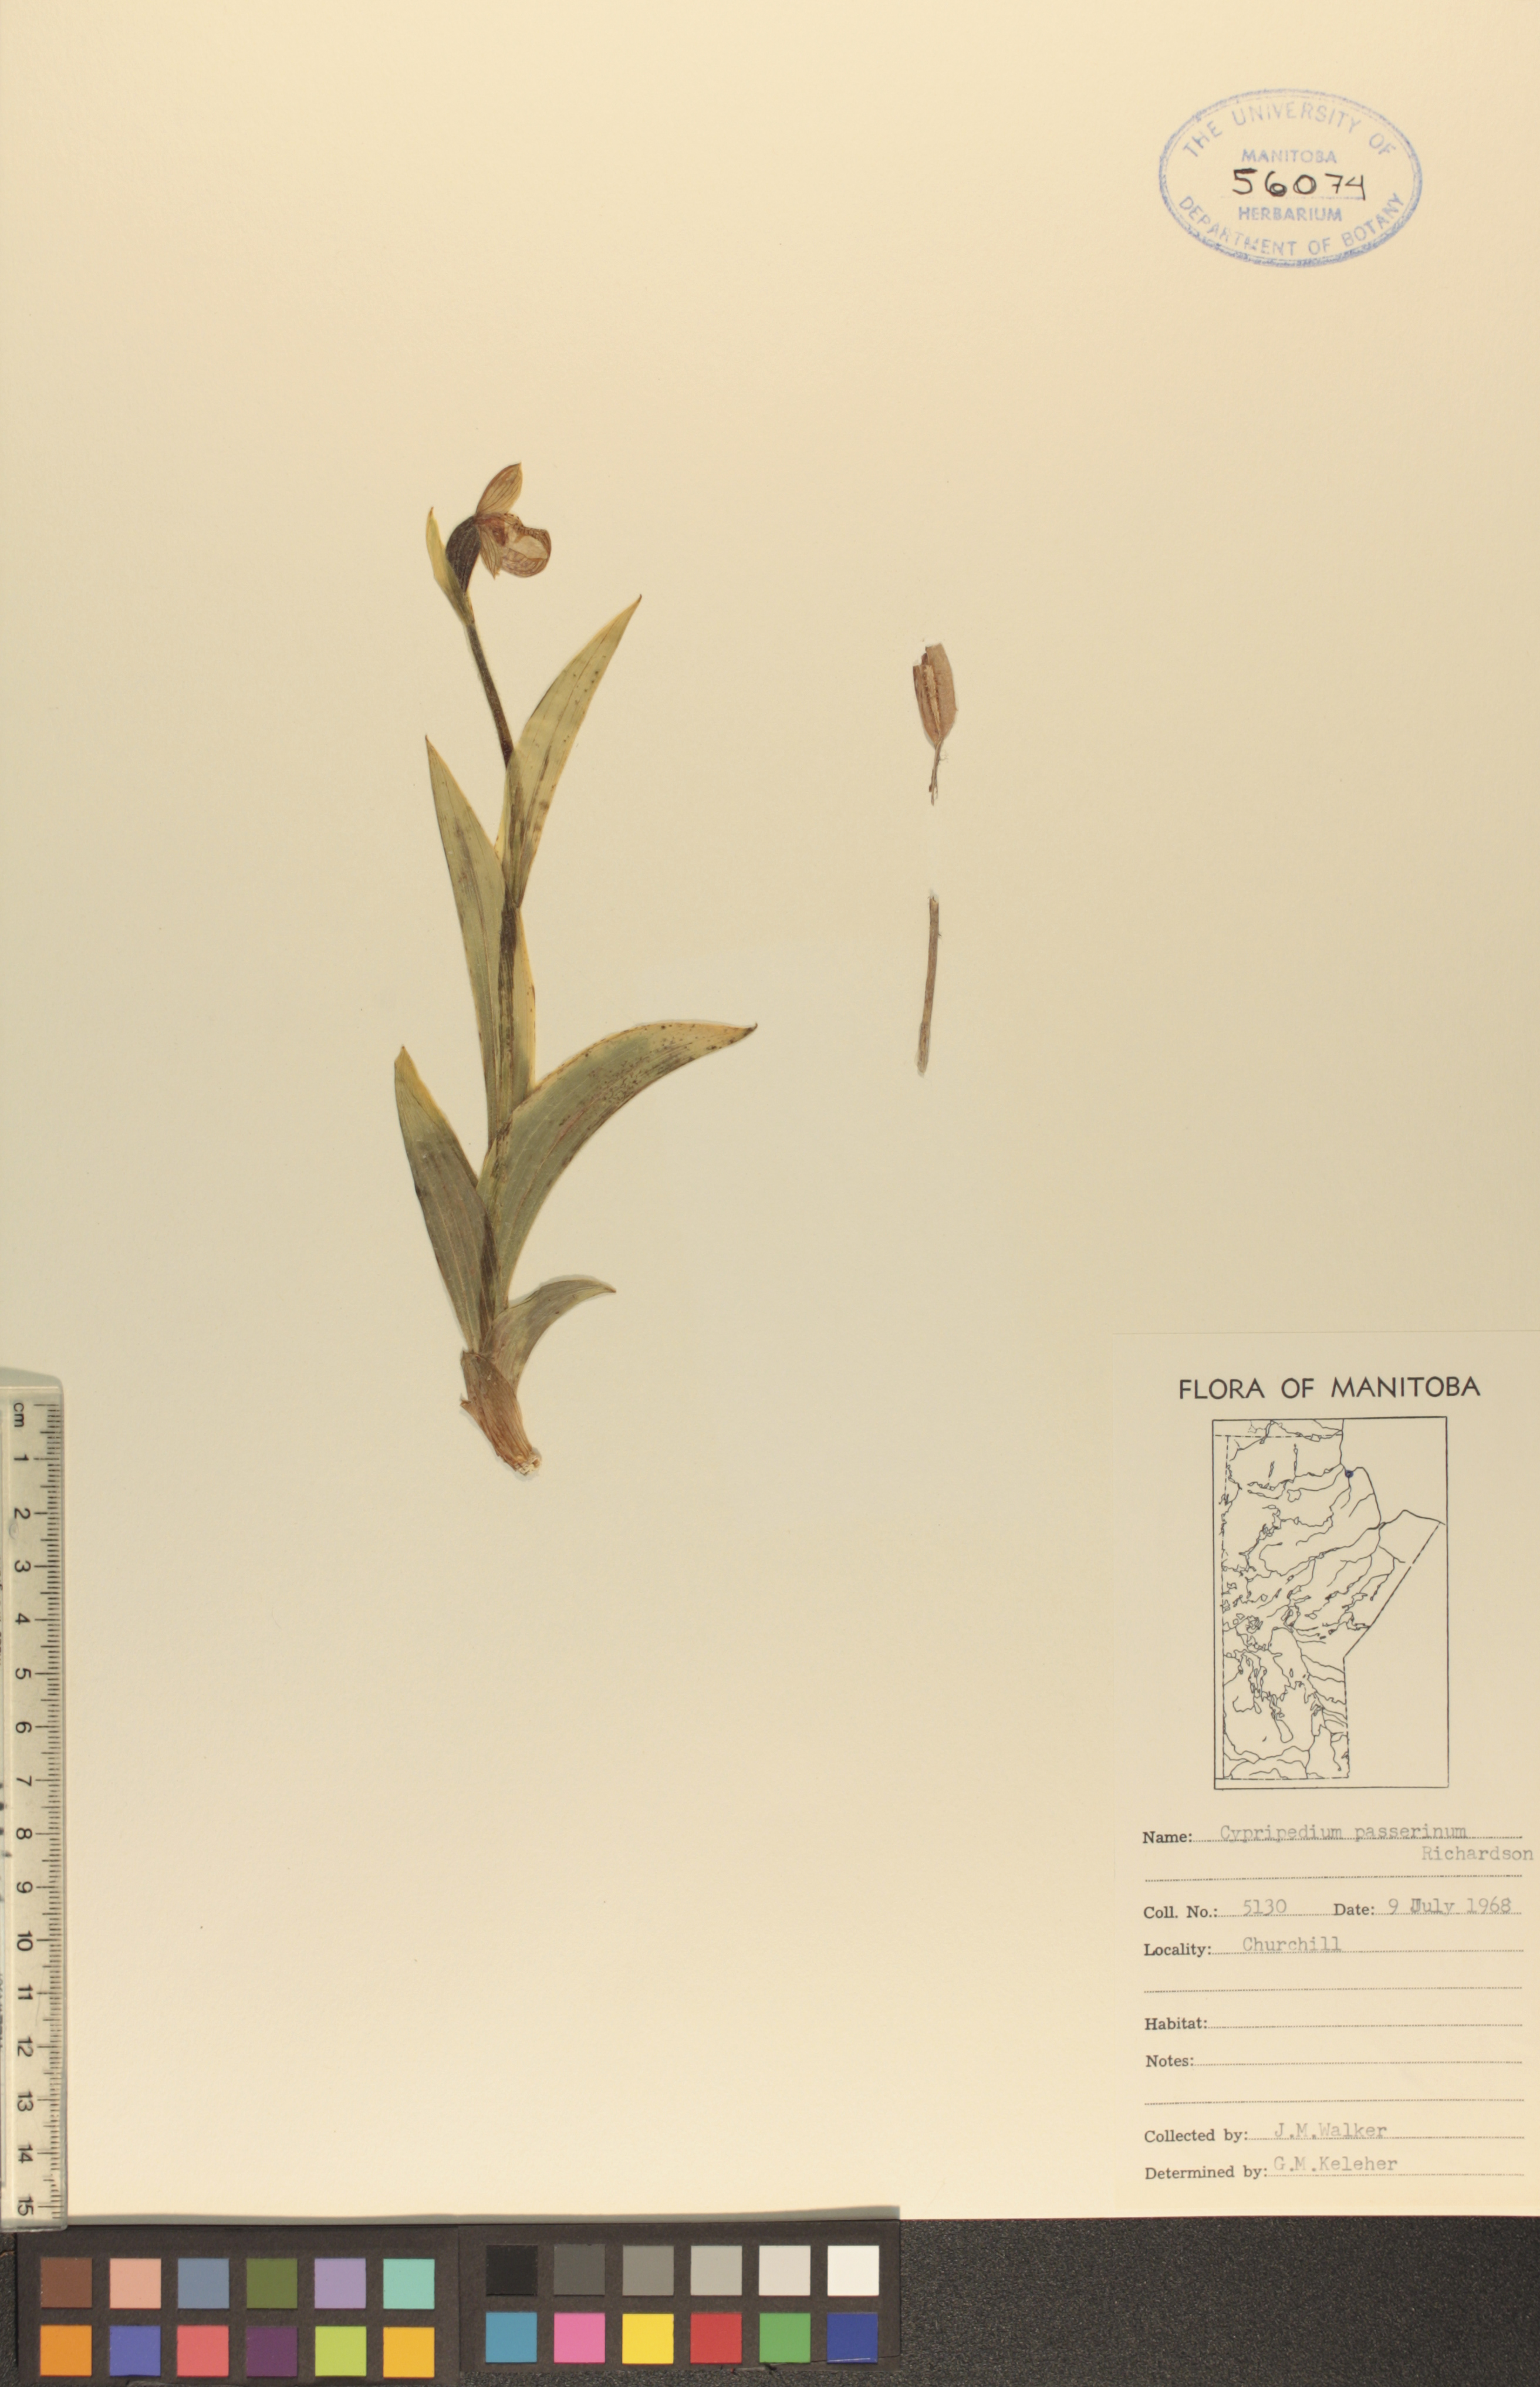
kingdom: Plantae
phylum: Tracheophyta
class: Liliopsida
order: Asparagales
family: Orchidaceae
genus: Cypripedium
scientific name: Cypripedium passerinum
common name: Sparrow's-egg lady's-slipper
